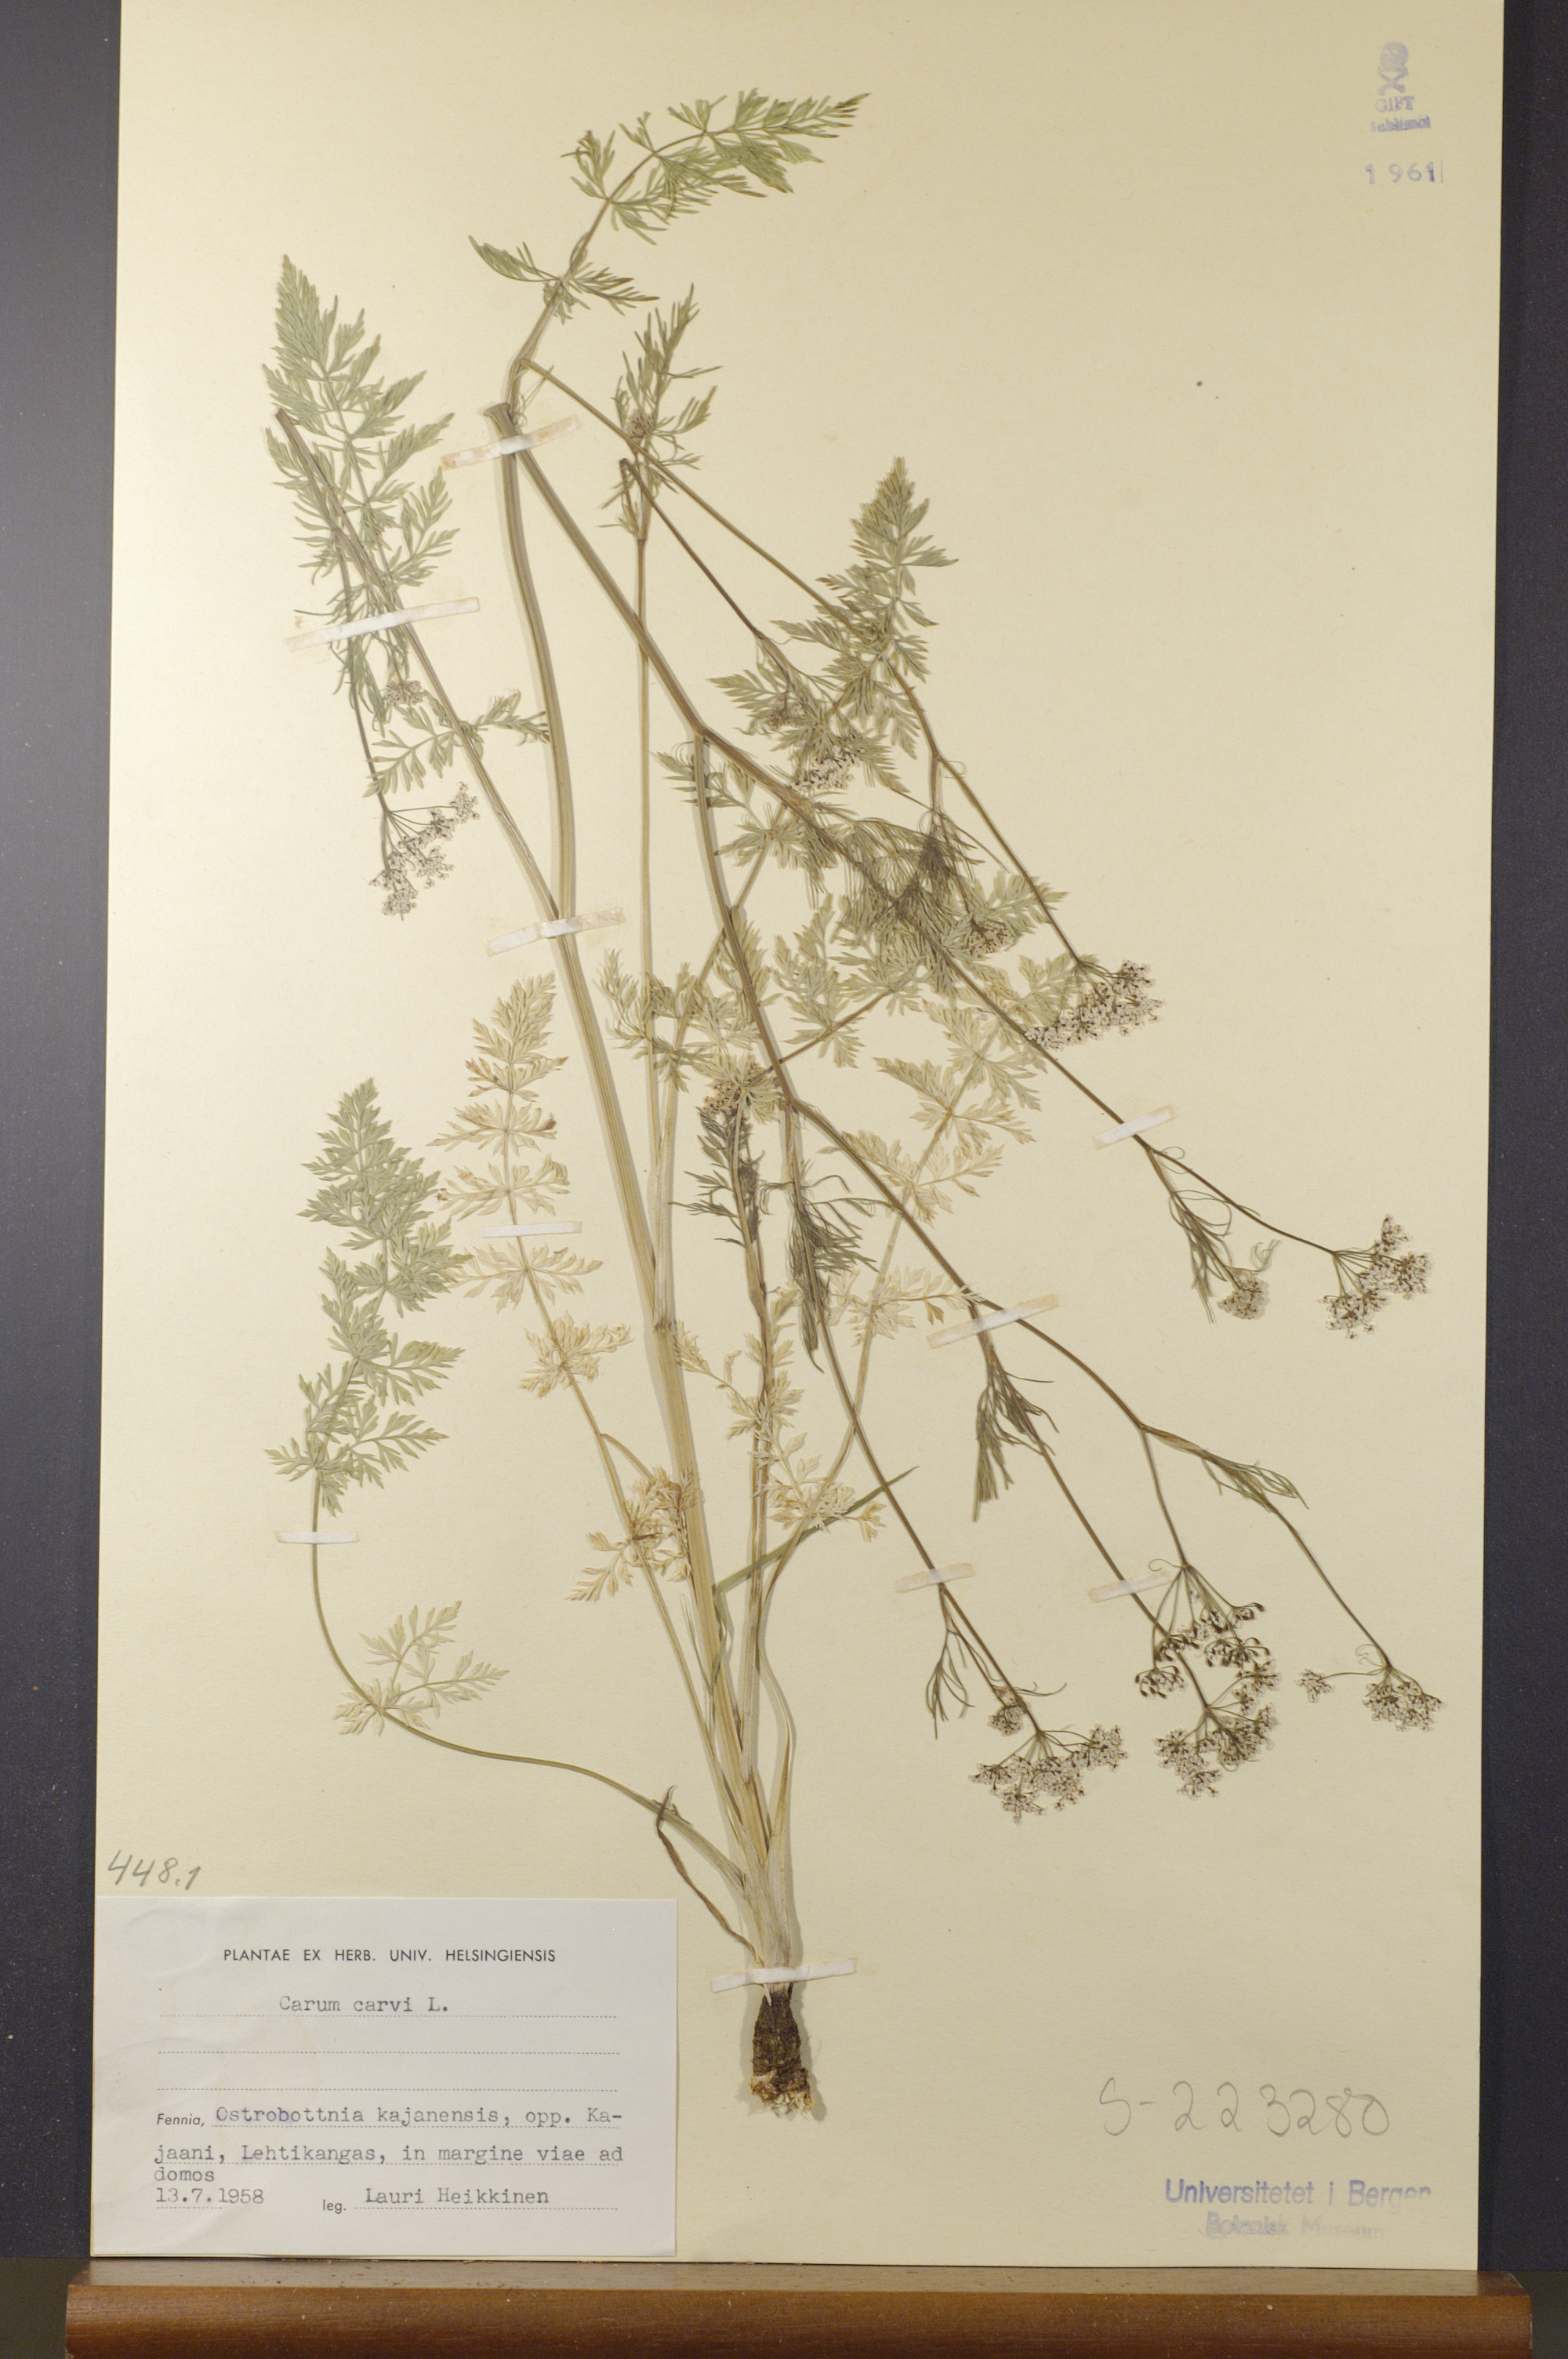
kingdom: Plantae
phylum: Tracheophyta
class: Magnoliopsida
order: Apiales
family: Apiaceae
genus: Carum
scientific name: Carum carvi
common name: Caraway
